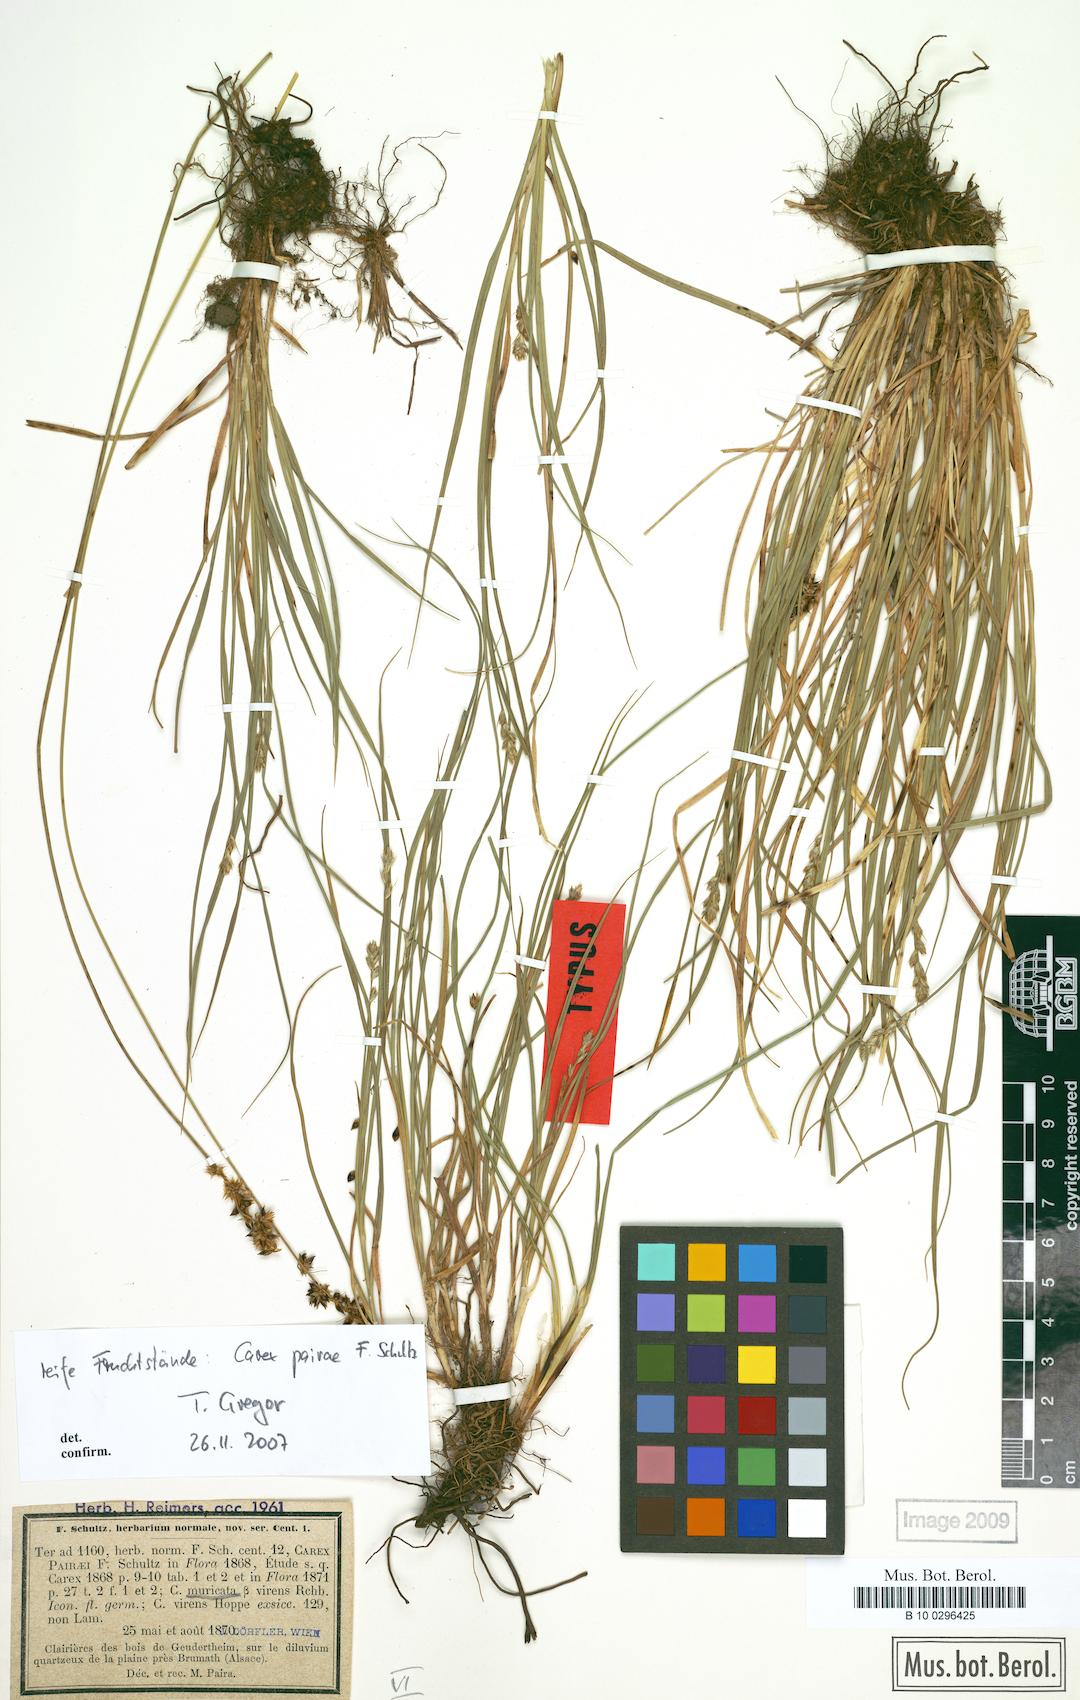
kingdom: Plantae
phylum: Tracheophyta
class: Liliopsida
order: Poales
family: Cyperaceae
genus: Carex
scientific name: Carex pairae
